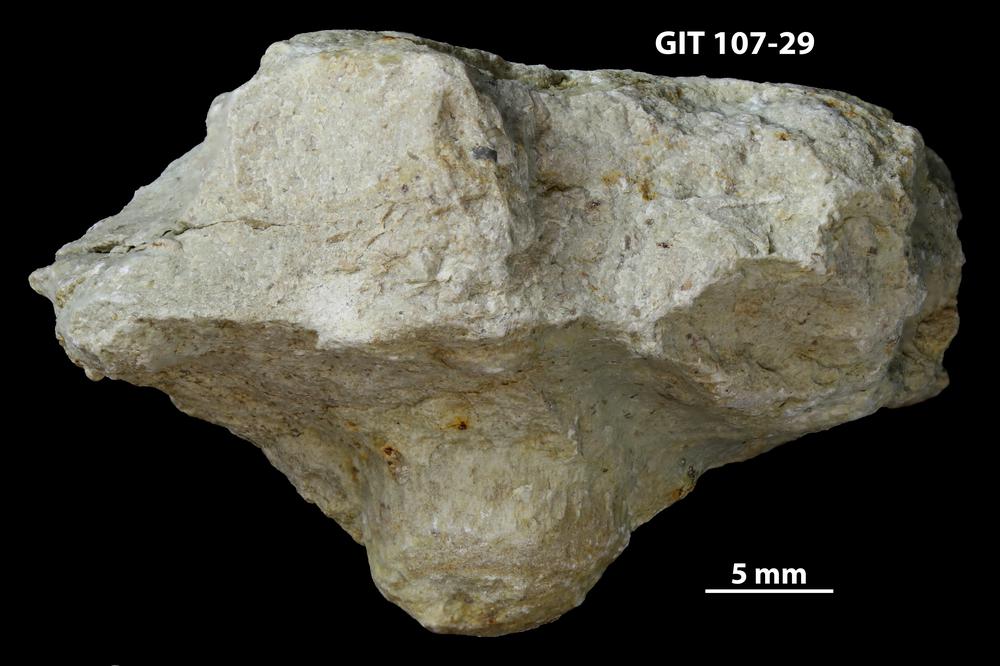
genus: Amphorichnus
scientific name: Amphorichnus
